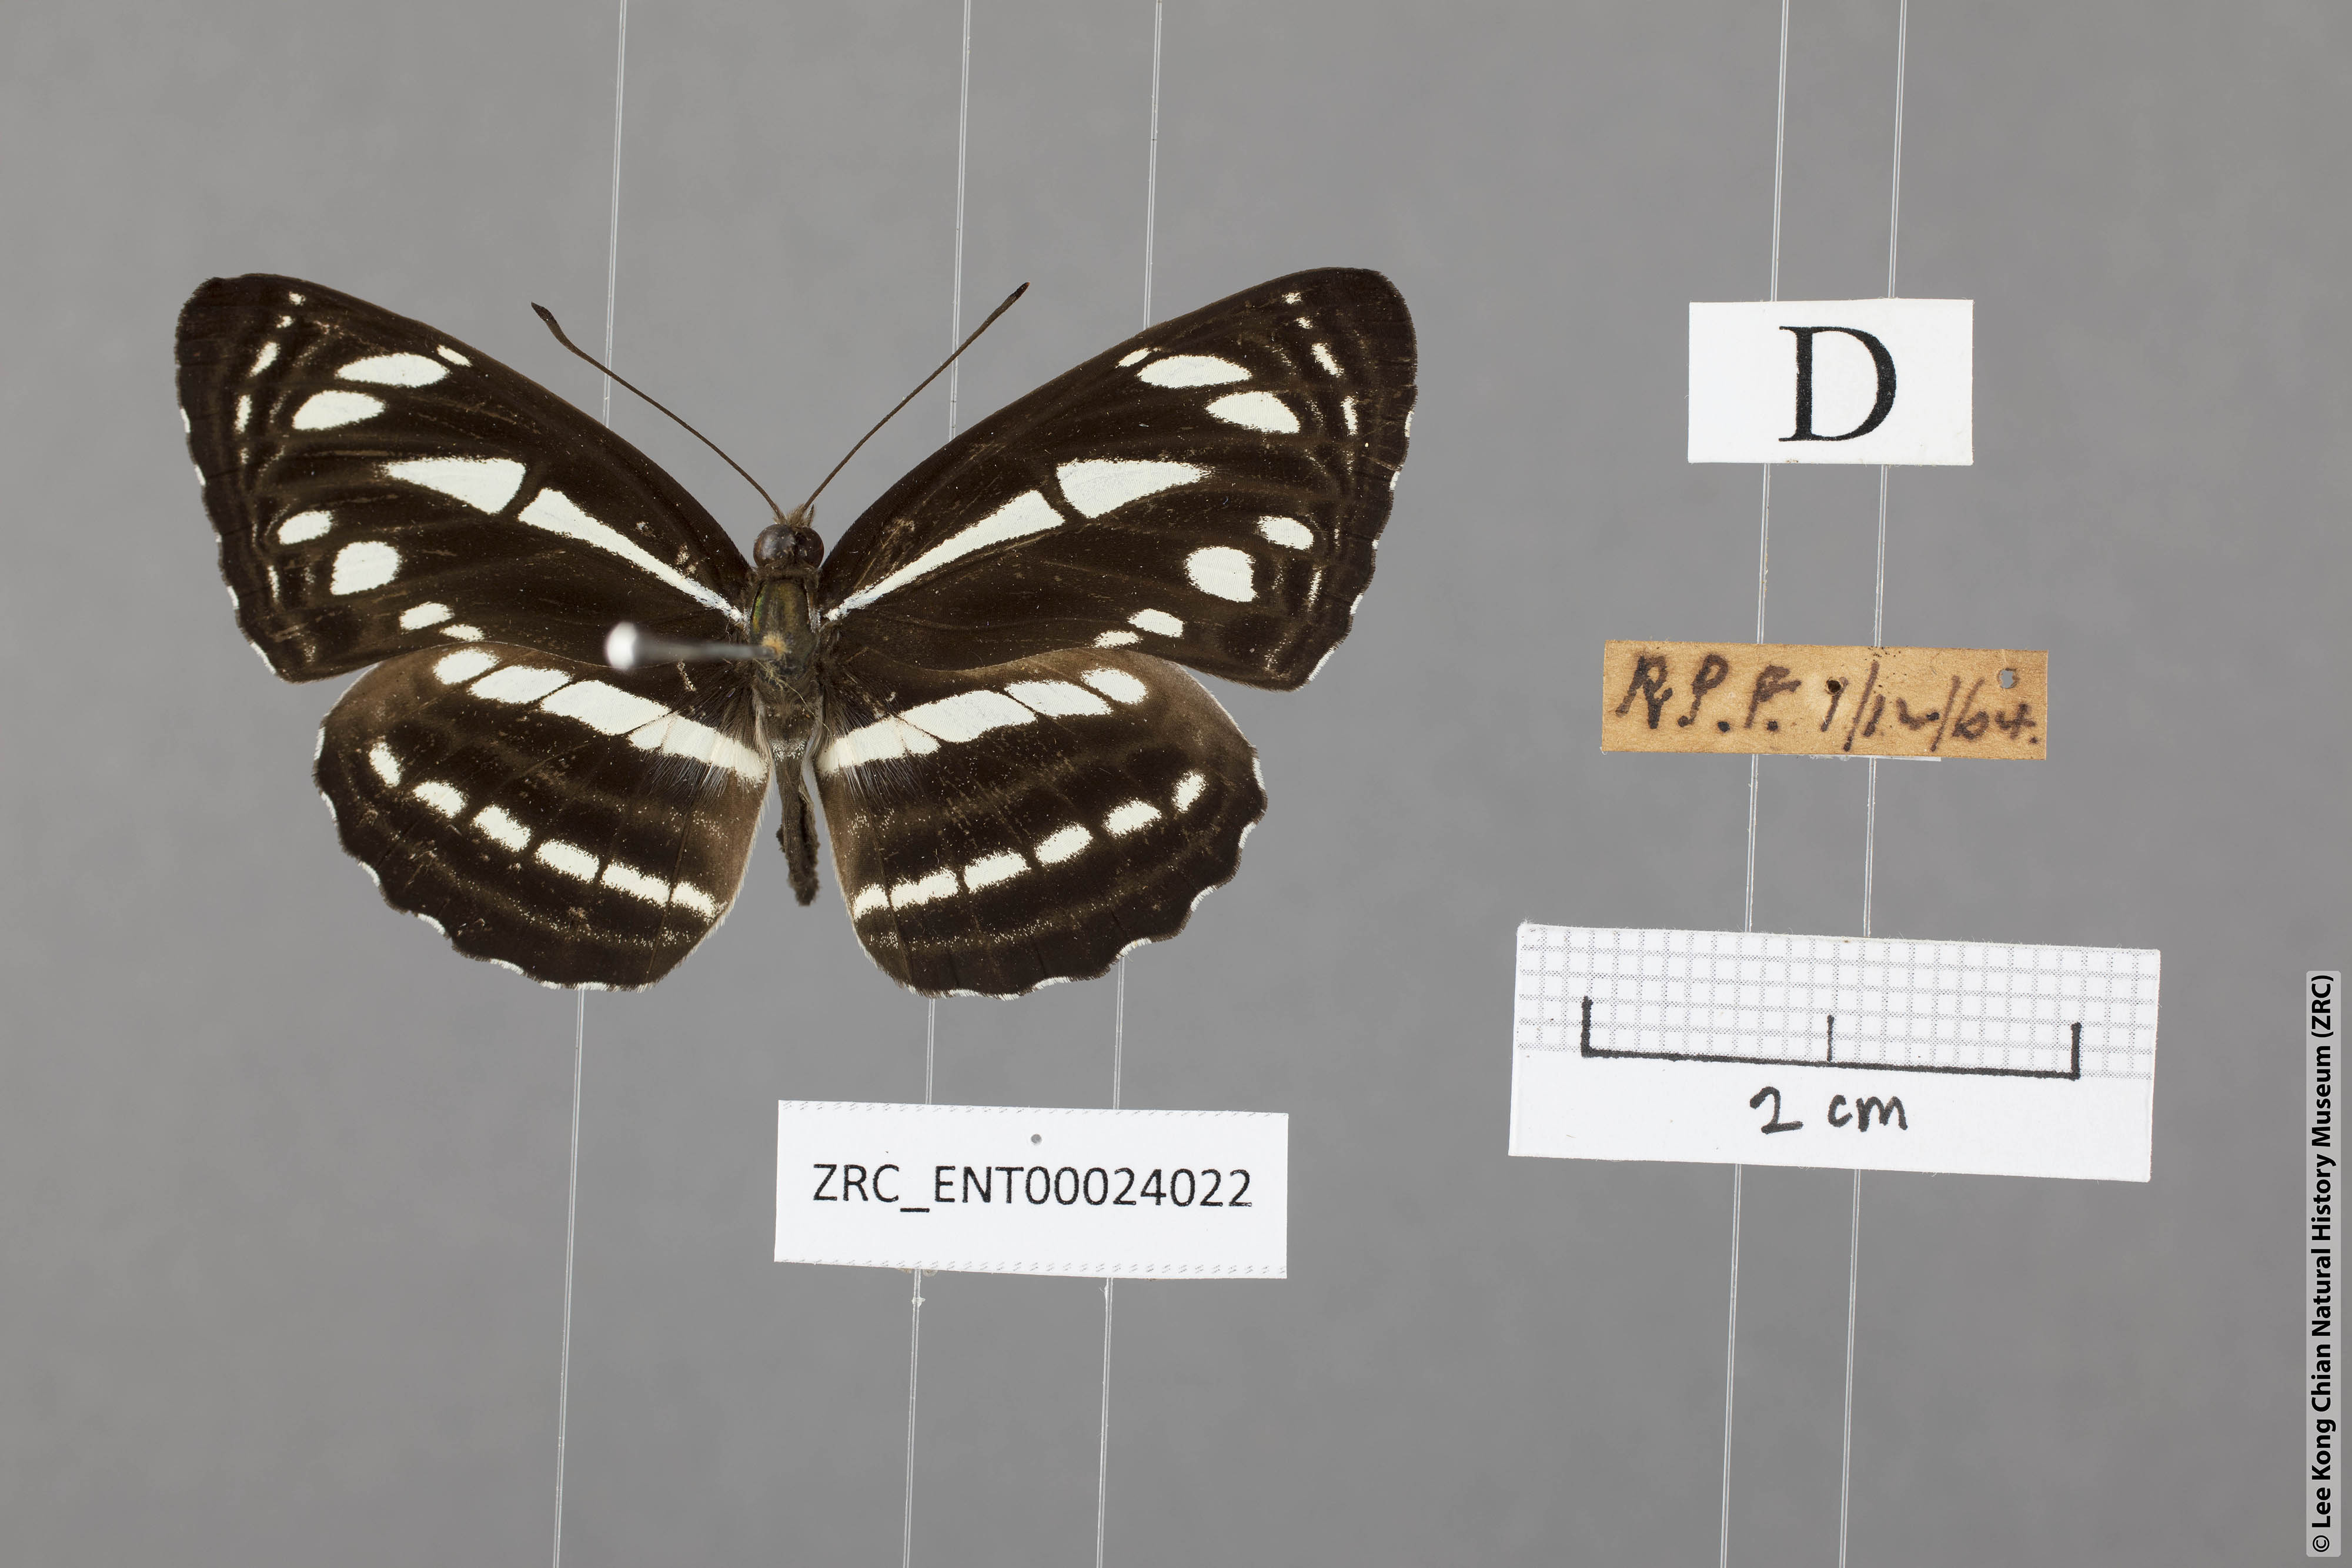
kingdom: Animalia
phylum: Arthropoda
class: Insecta
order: Lepidoptera
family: Nymphalidae
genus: Neptis
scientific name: Neptis leucoporus
